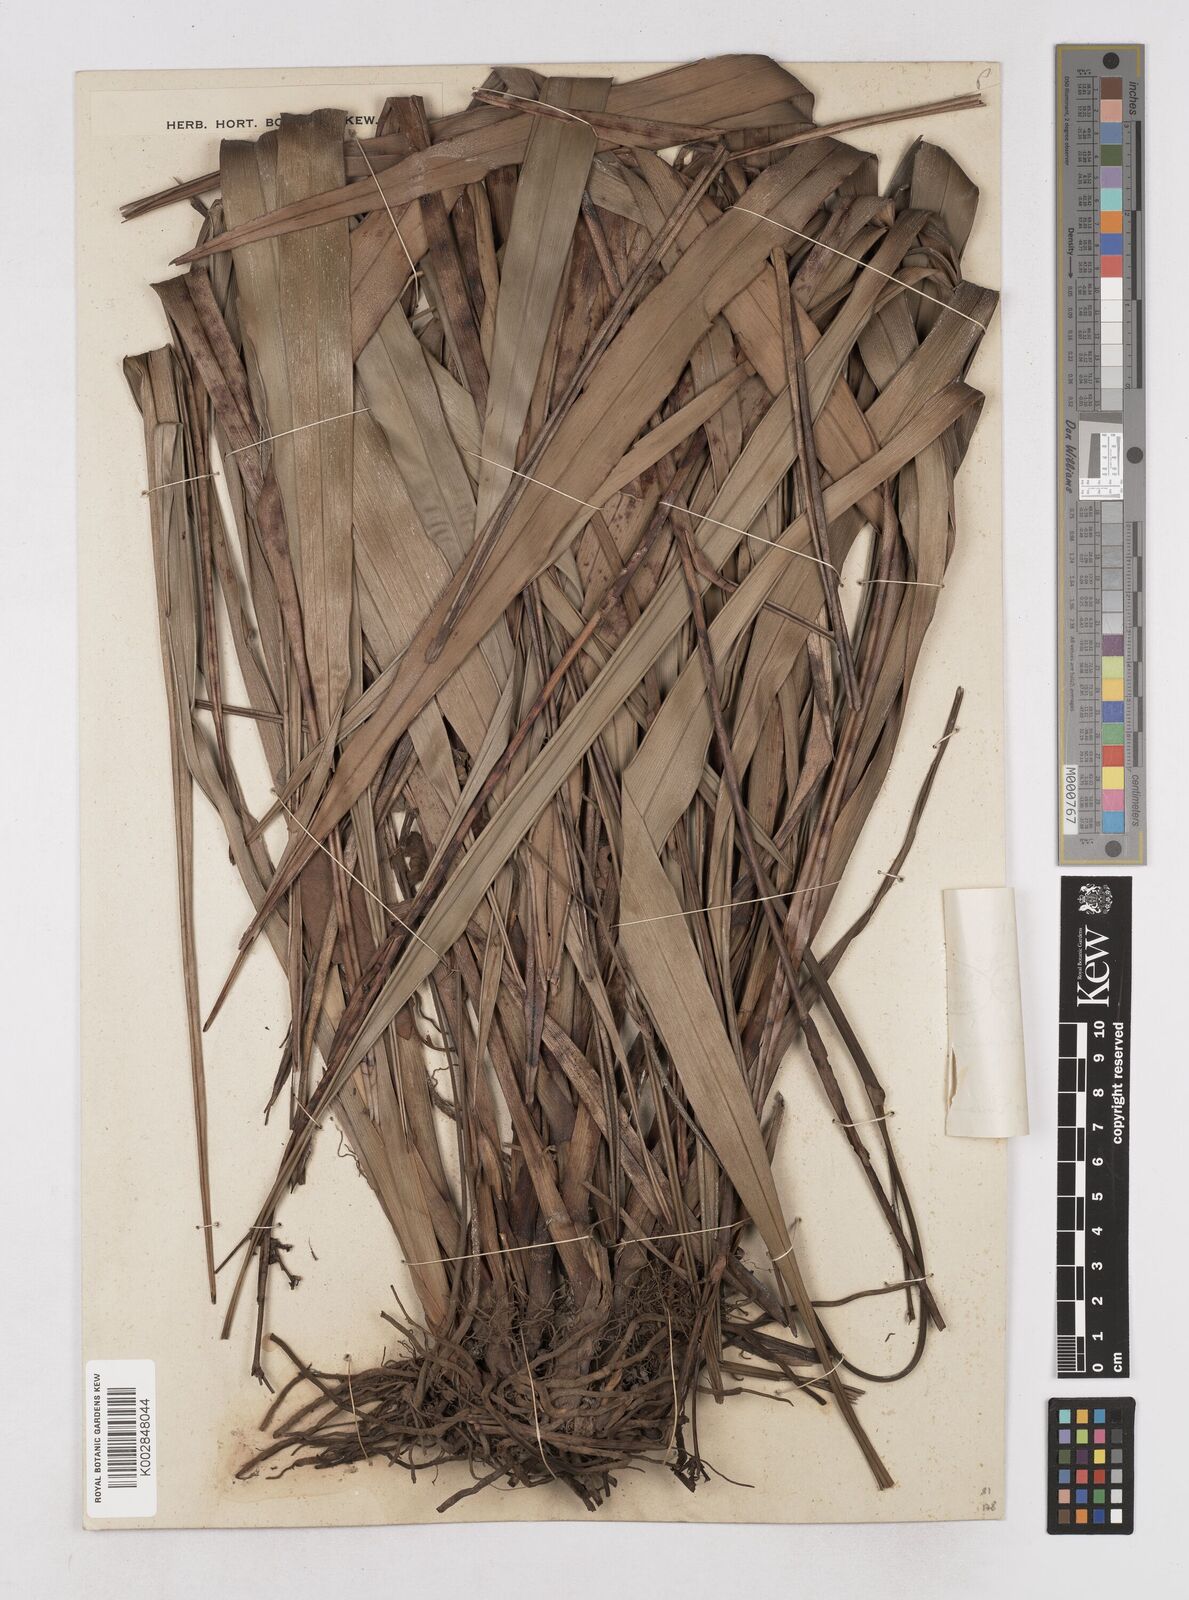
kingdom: Plantae
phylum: Tracheophyta
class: Liliopsida
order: Asparagales
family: Asphodelaceae
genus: Dianella
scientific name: Dianella ensifolia
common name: New zealand lilyplant
